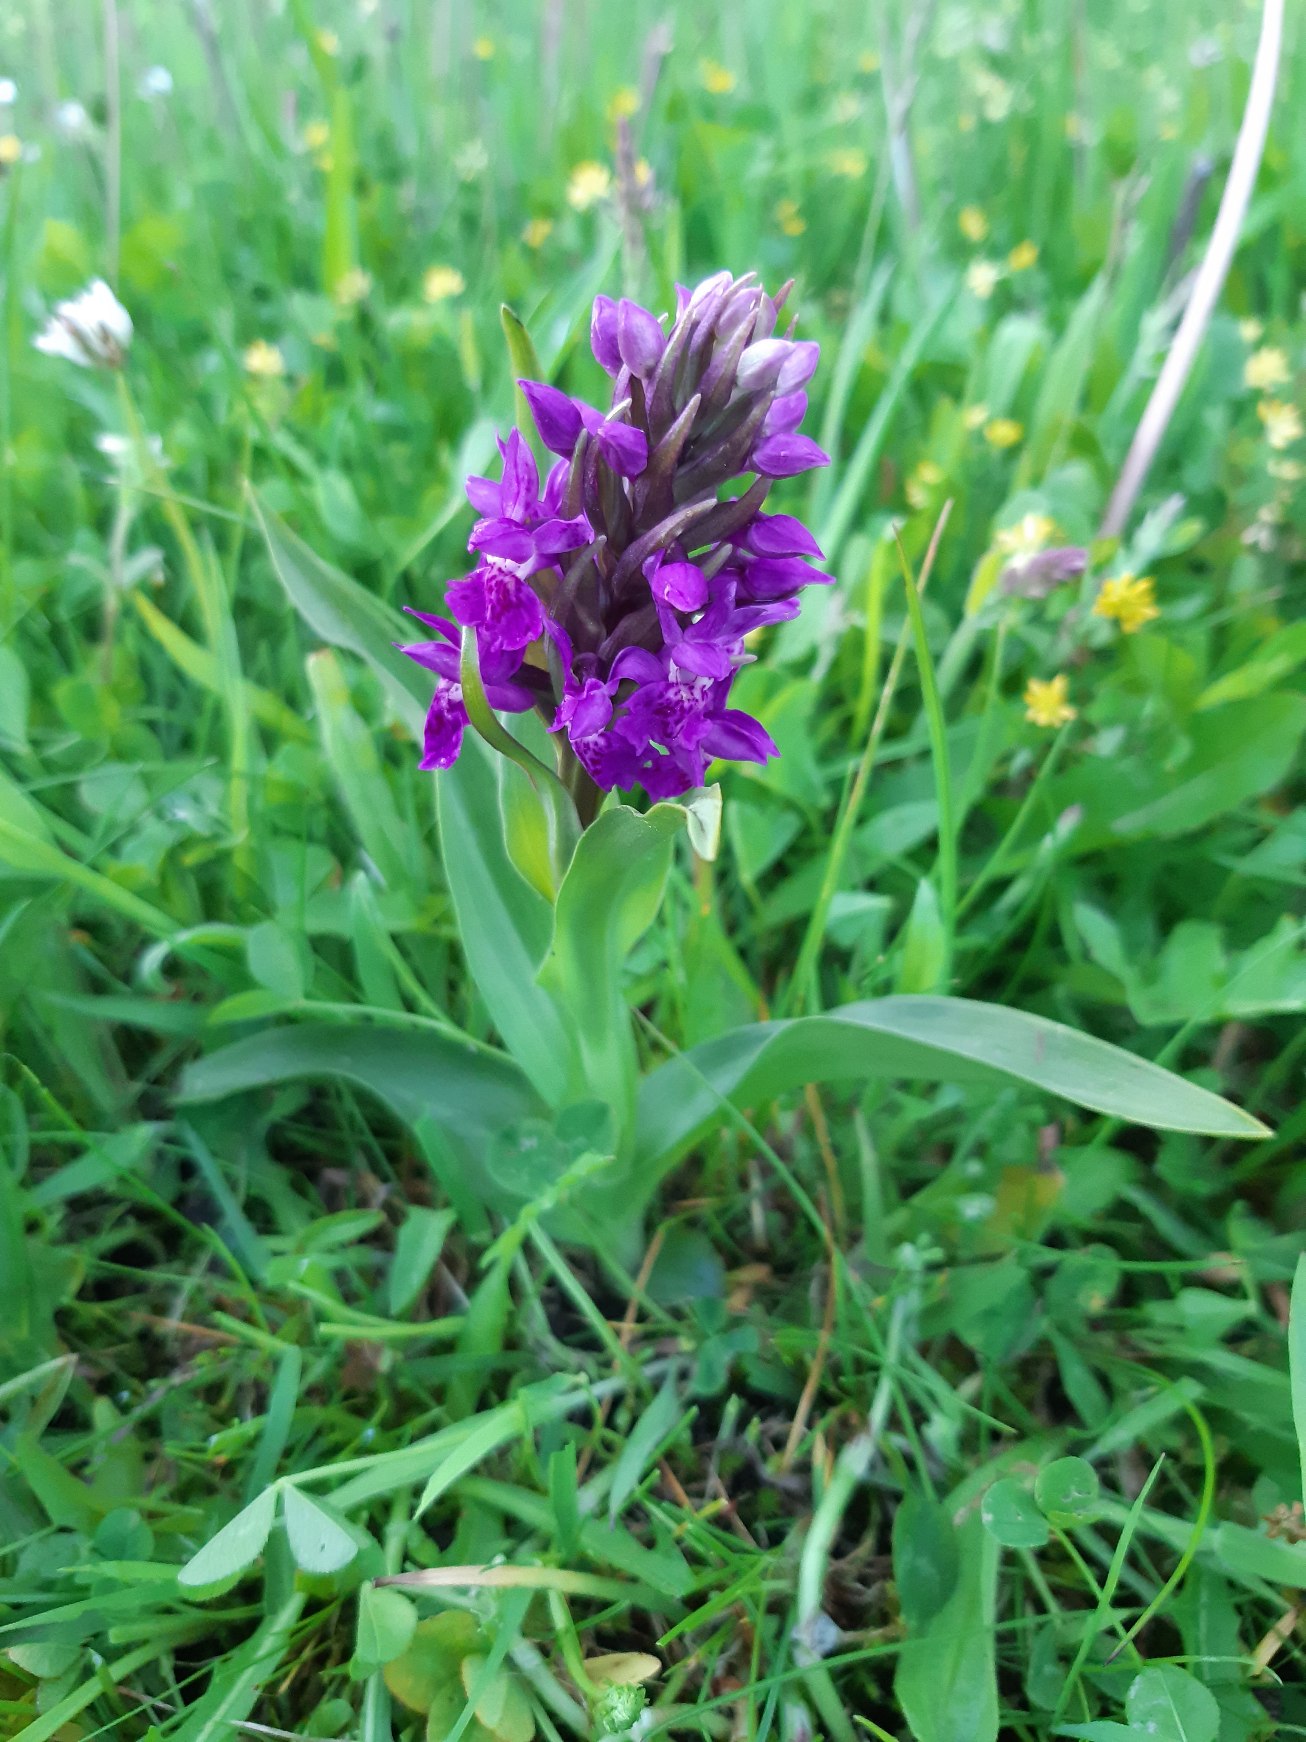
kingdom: Plantae
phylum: Tracheophyta
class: Liliopsida
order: Asparagales
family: Orchidaceae
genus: Dactylorhiza
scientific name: Dactylorhiza majalis
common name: Maj-gøgeurt
